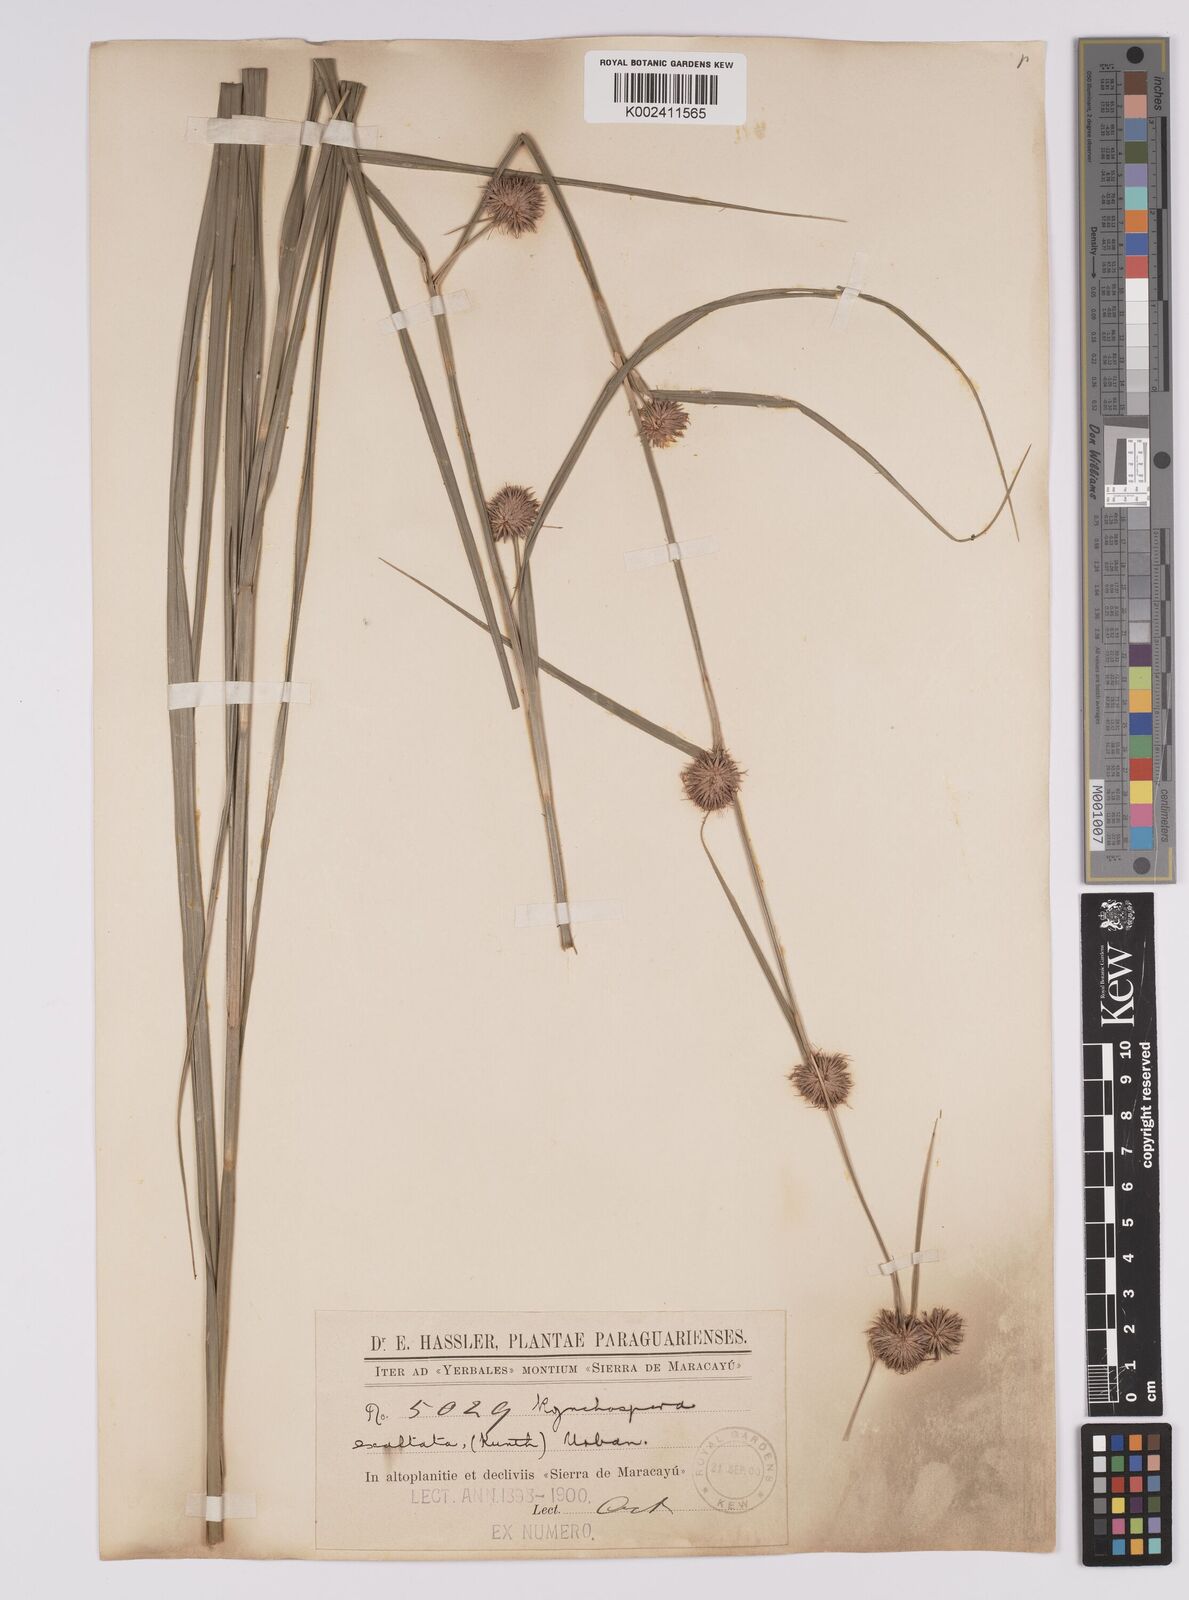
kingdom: Plantae
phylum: Tracheophyta
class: Liliopsida
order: Poales
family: Cyperaceae
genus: Rhynchospora
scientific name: Rhynchospora exaltata
